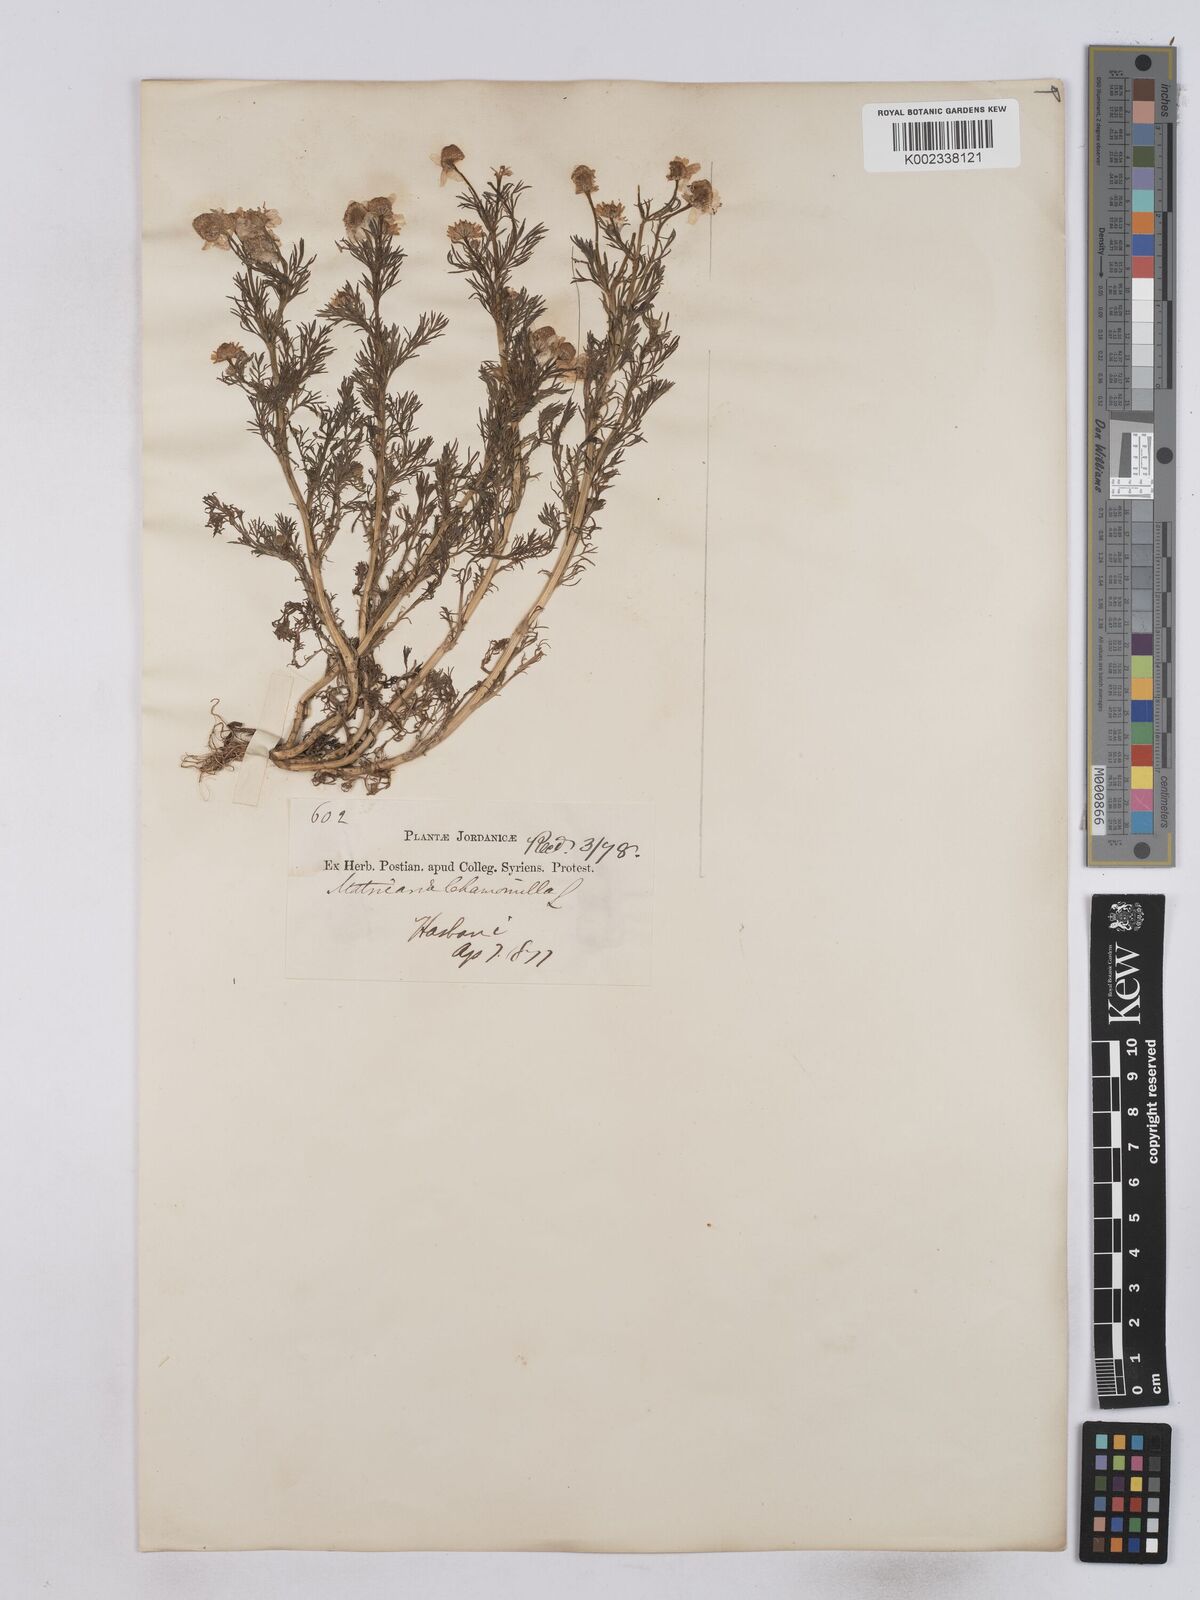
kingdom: Plantae
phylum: Tracheophyta
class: Magnoliopsida
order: Asterales
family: Asteraceae
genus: Matricaria
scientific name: Matricaria chamomilla
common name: Scented mayweed
